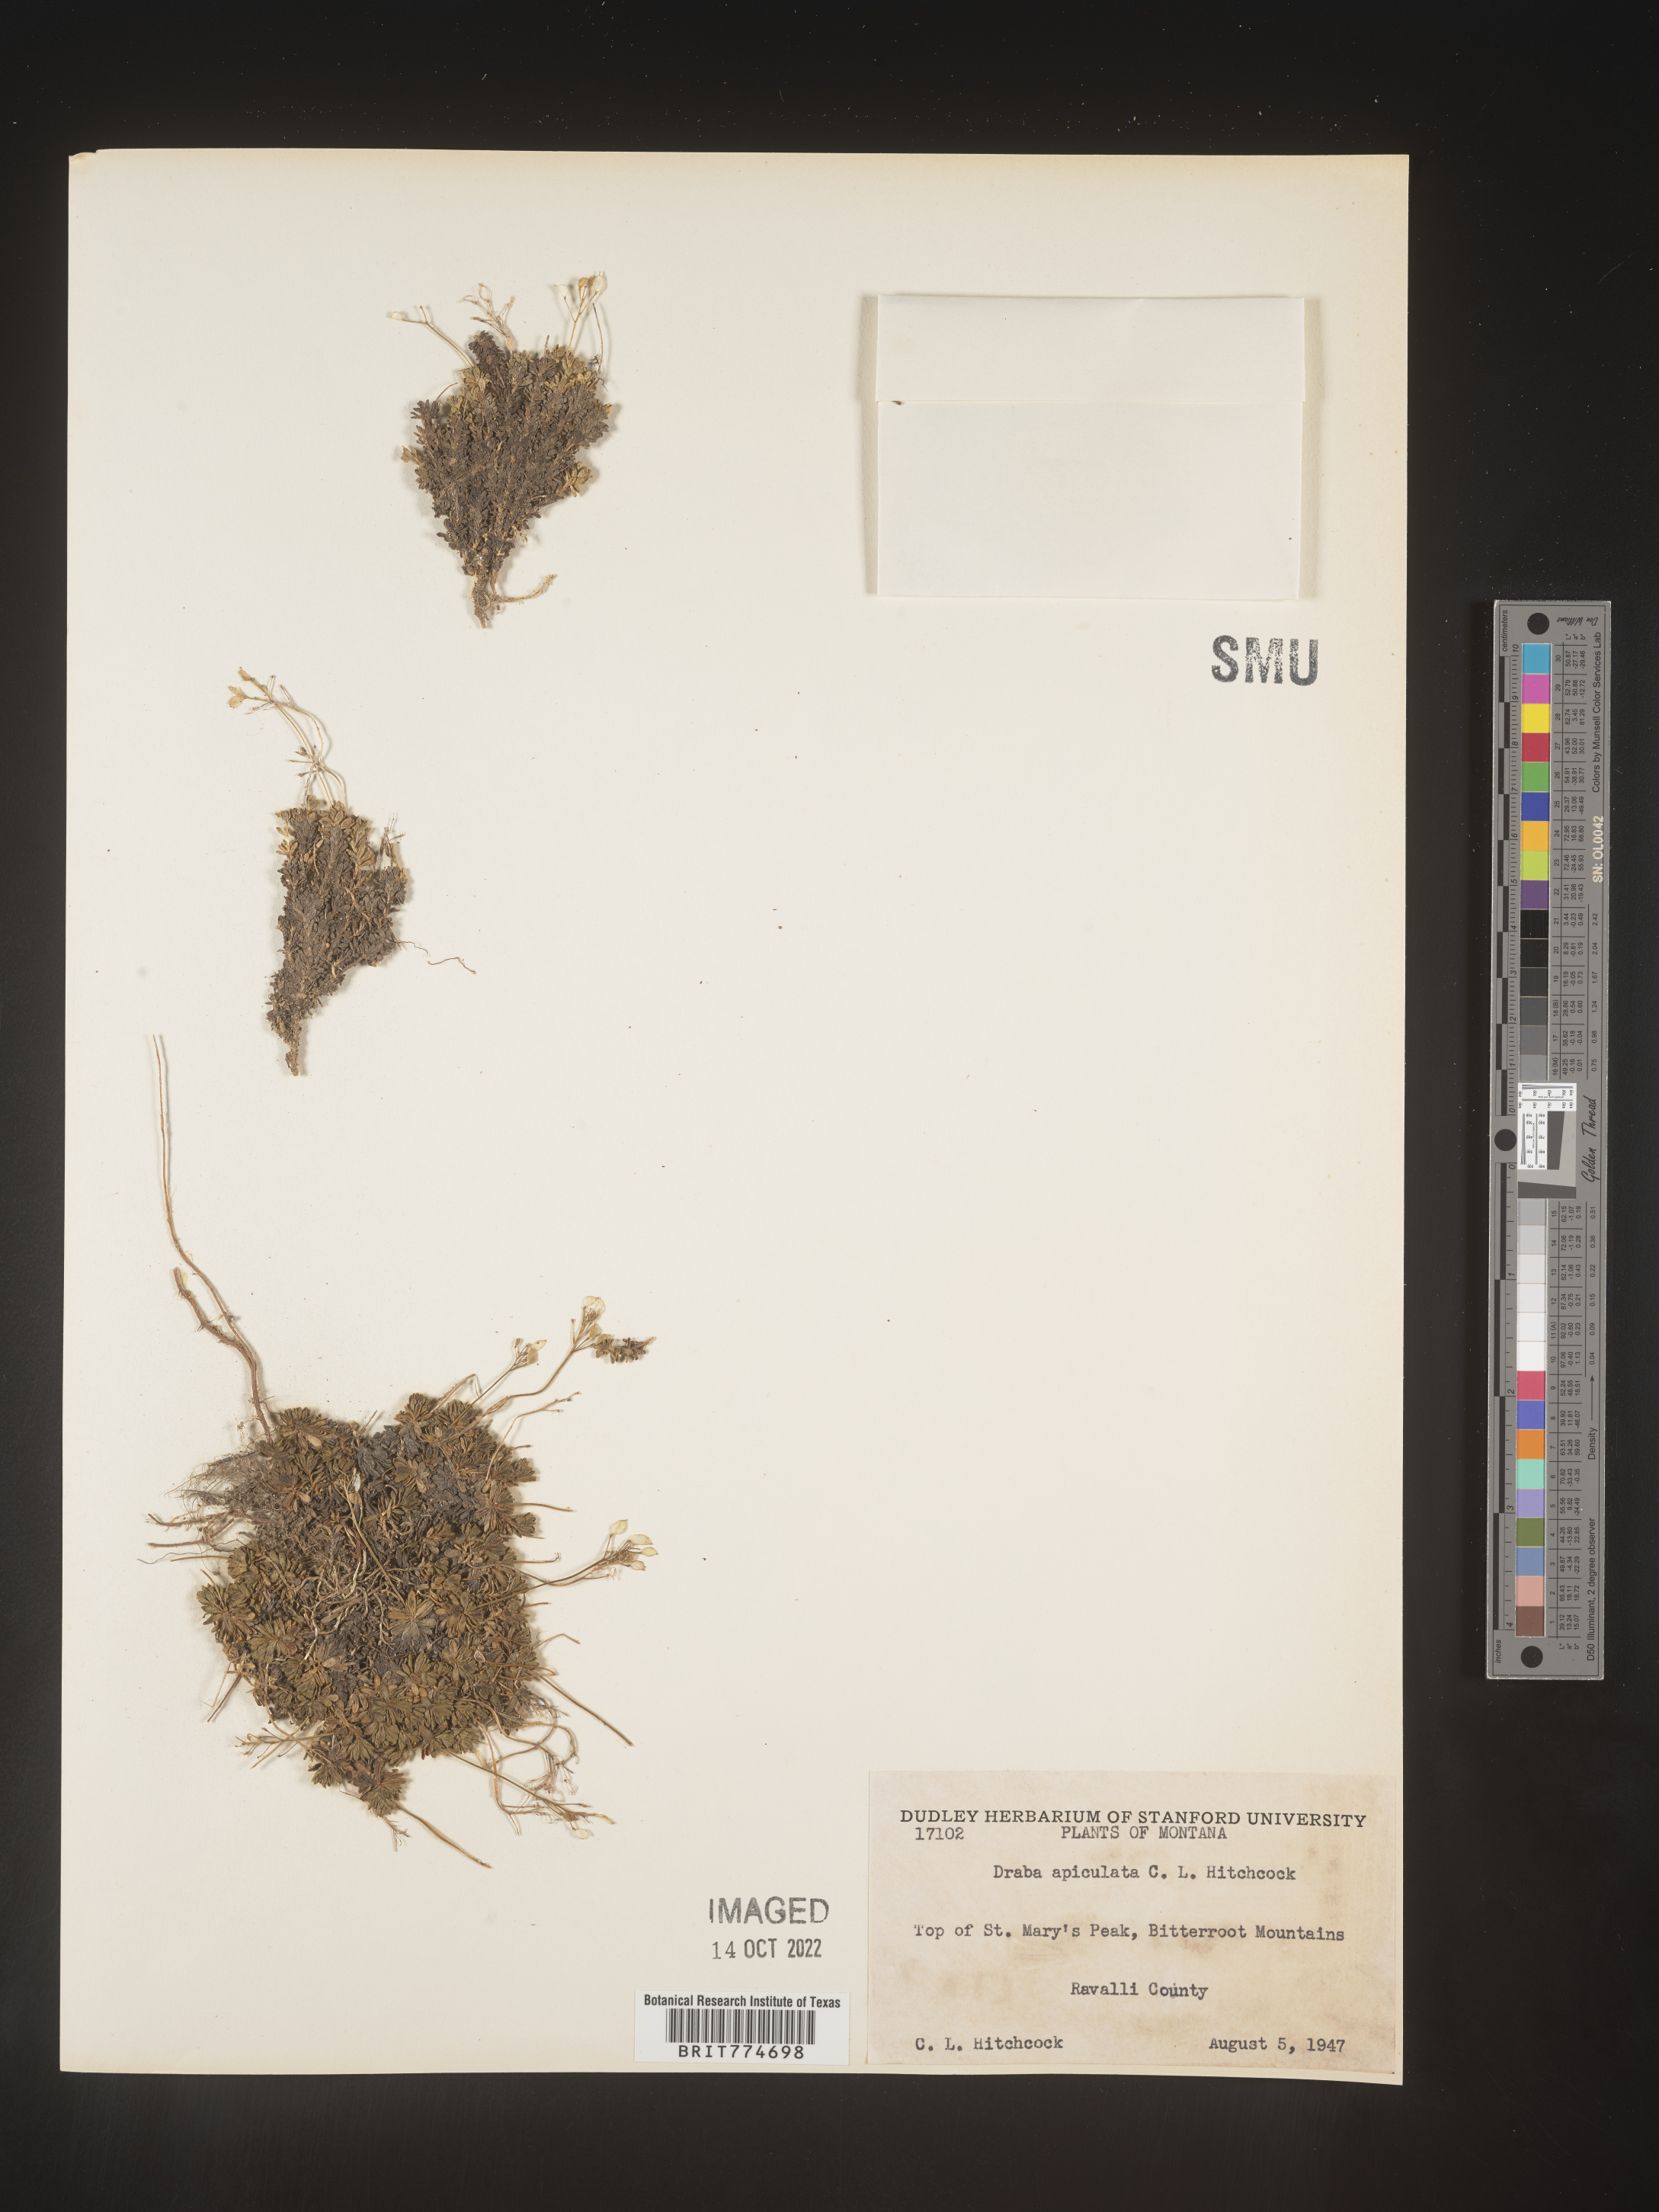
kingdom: Plantae
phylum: Tracheophyta
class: Magnoliopsida
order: Brassicales
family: Brassicaceae
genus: Draba
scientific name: Draba
